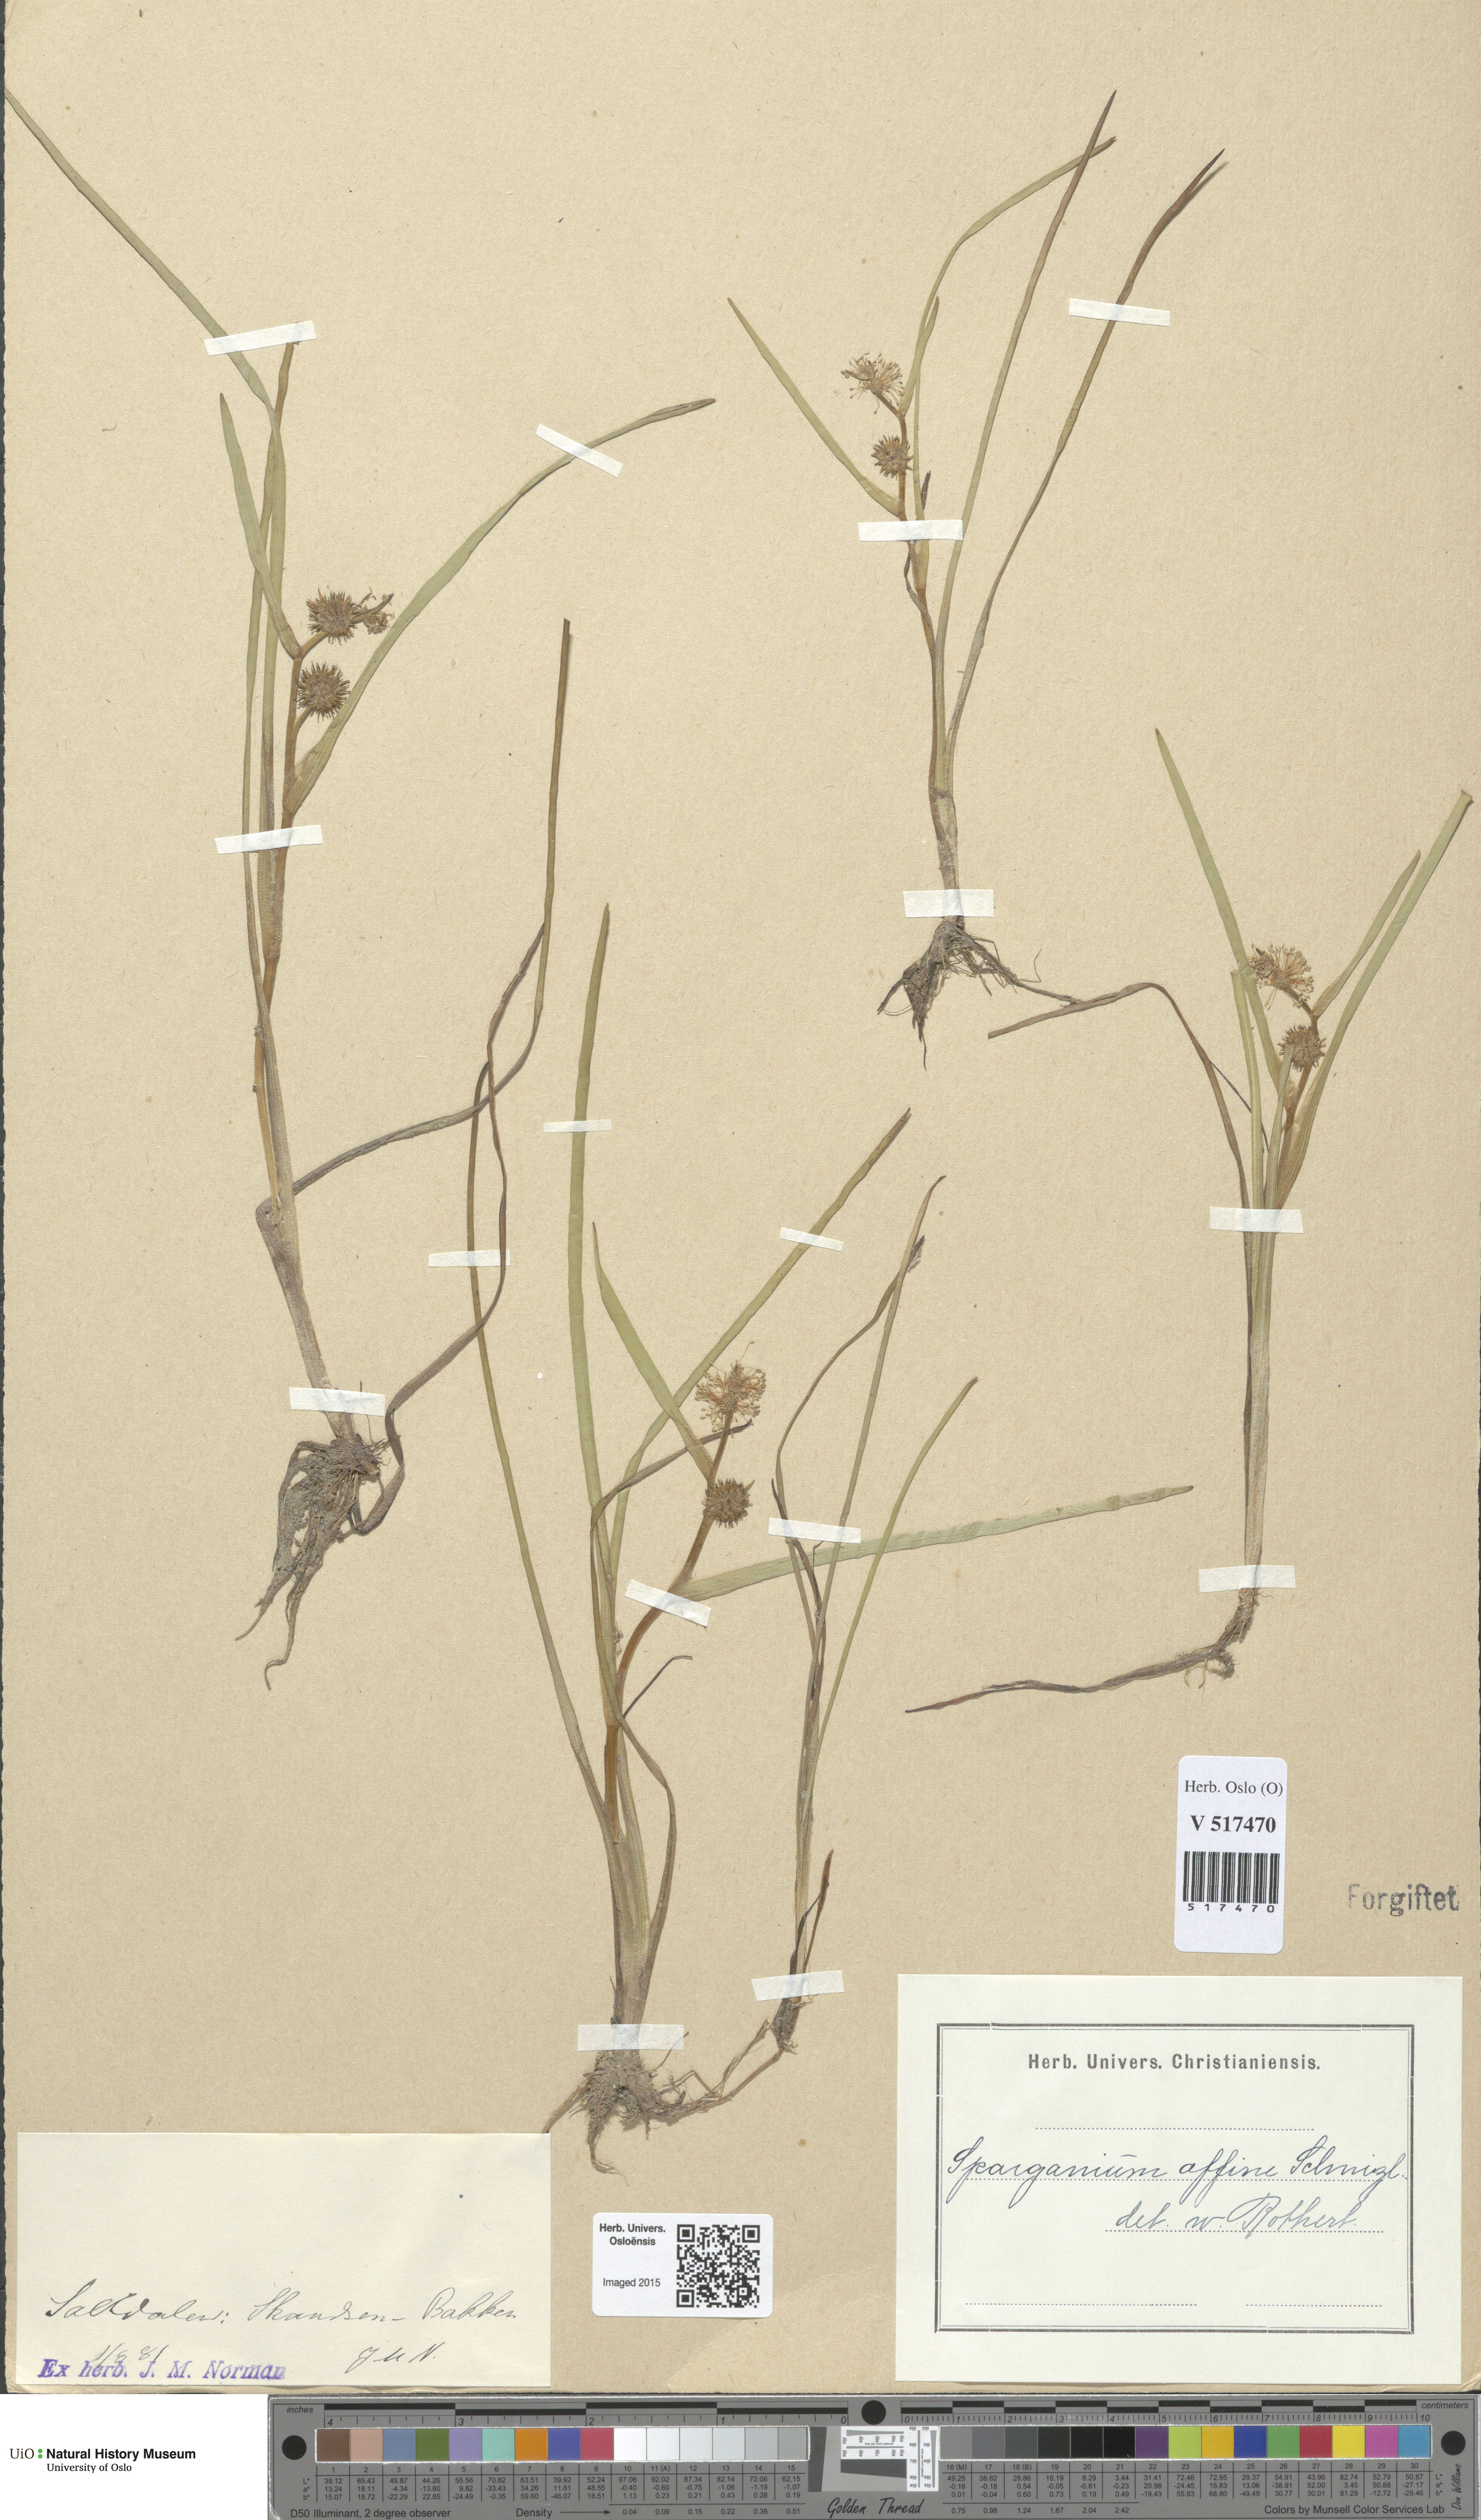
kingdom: Plantae
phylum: Tracheophyta
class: Liliopsida
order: Poales
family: Typhaceae
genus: Sparganium
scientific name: Sparganium angustifolium
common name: Floating bur-reed
